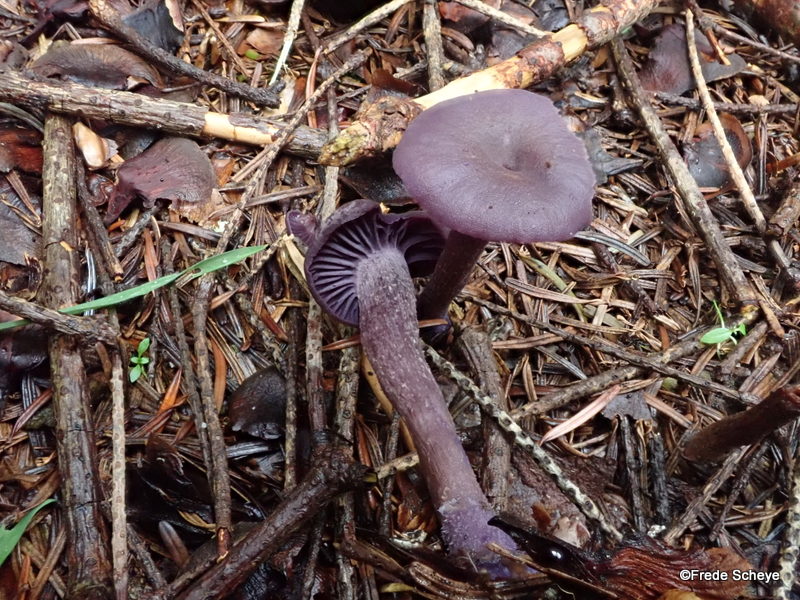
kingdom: Fungi
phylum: Basidiomycota
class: Agaricomycetes
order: Agaricales
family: Hydnangiaceae
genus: Laccaria
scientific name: Laccaria amethystina
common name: violet ametysthat
